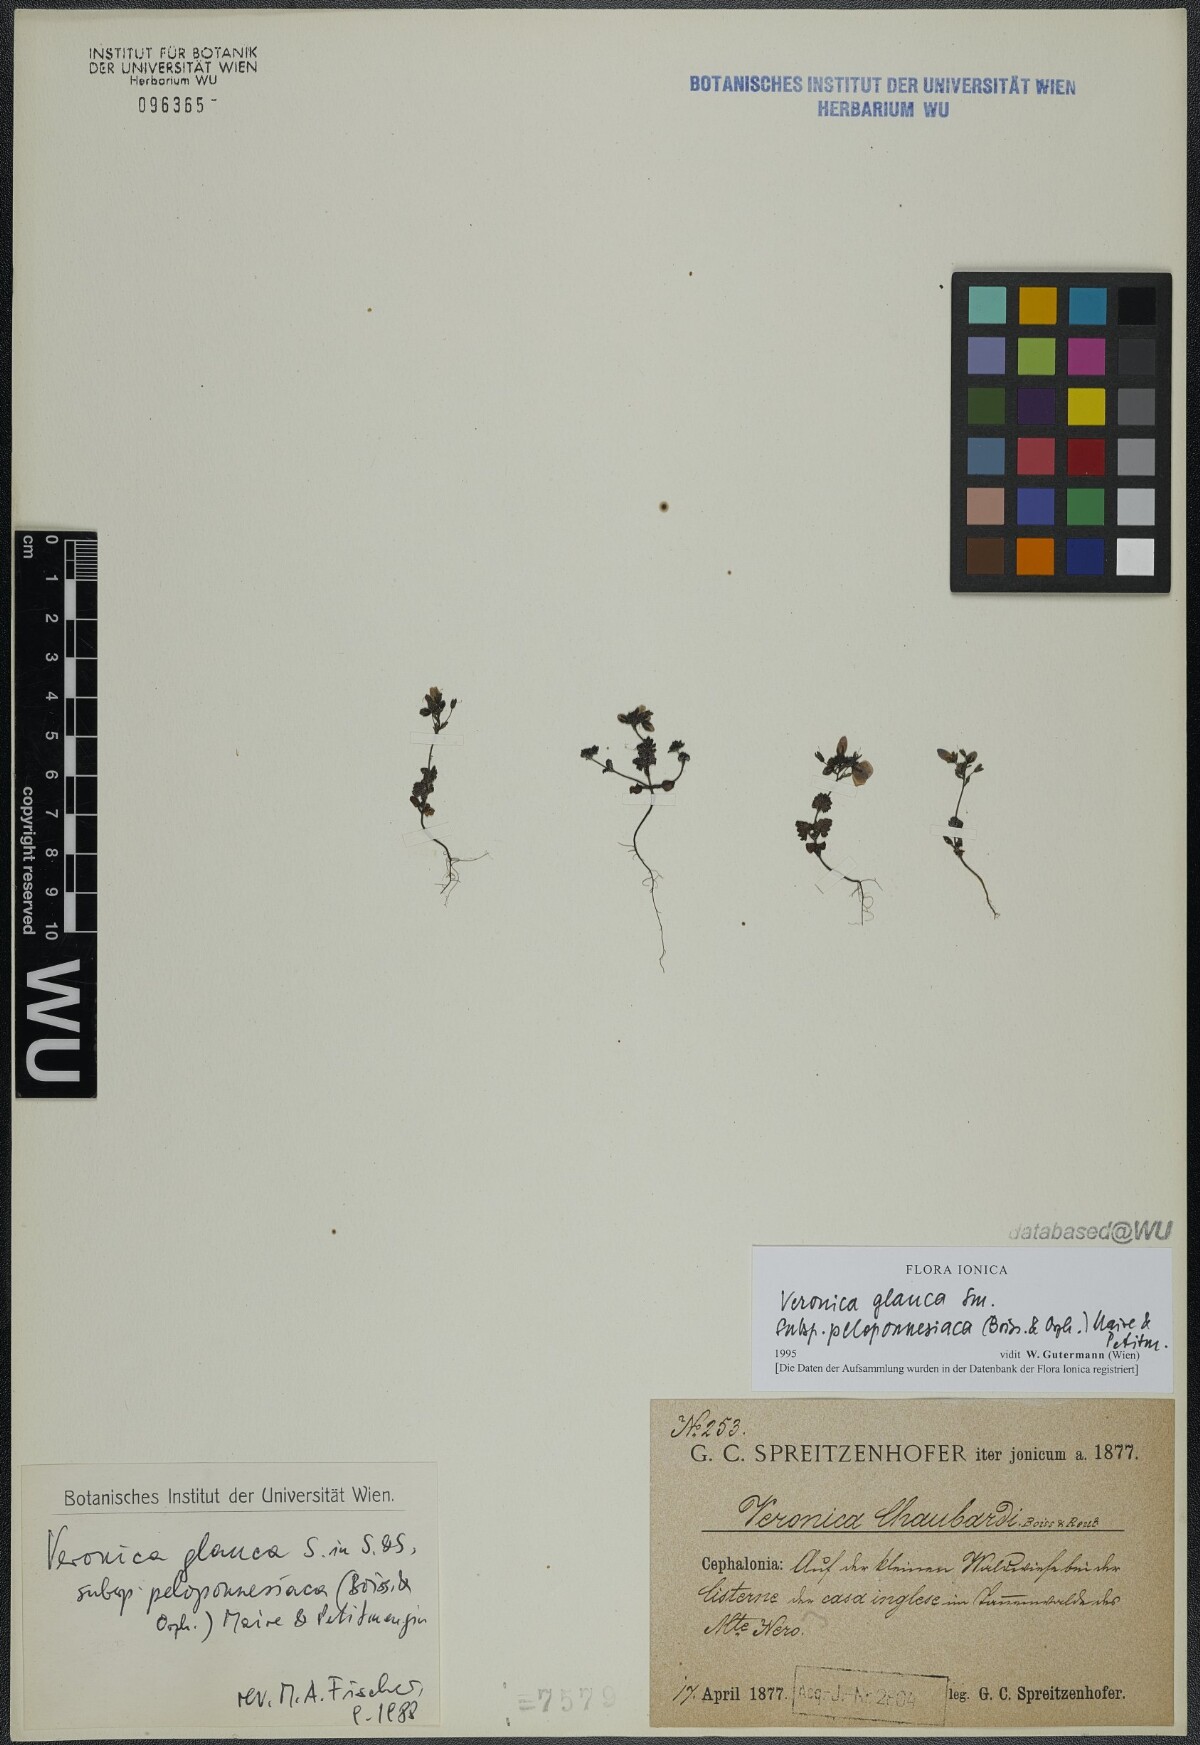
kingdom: Plantae
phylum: Tracheophyta
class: Magnoliopsida
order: Lamiales
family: Plantaginaceae
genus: Veronica
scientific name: Veronica glauca
